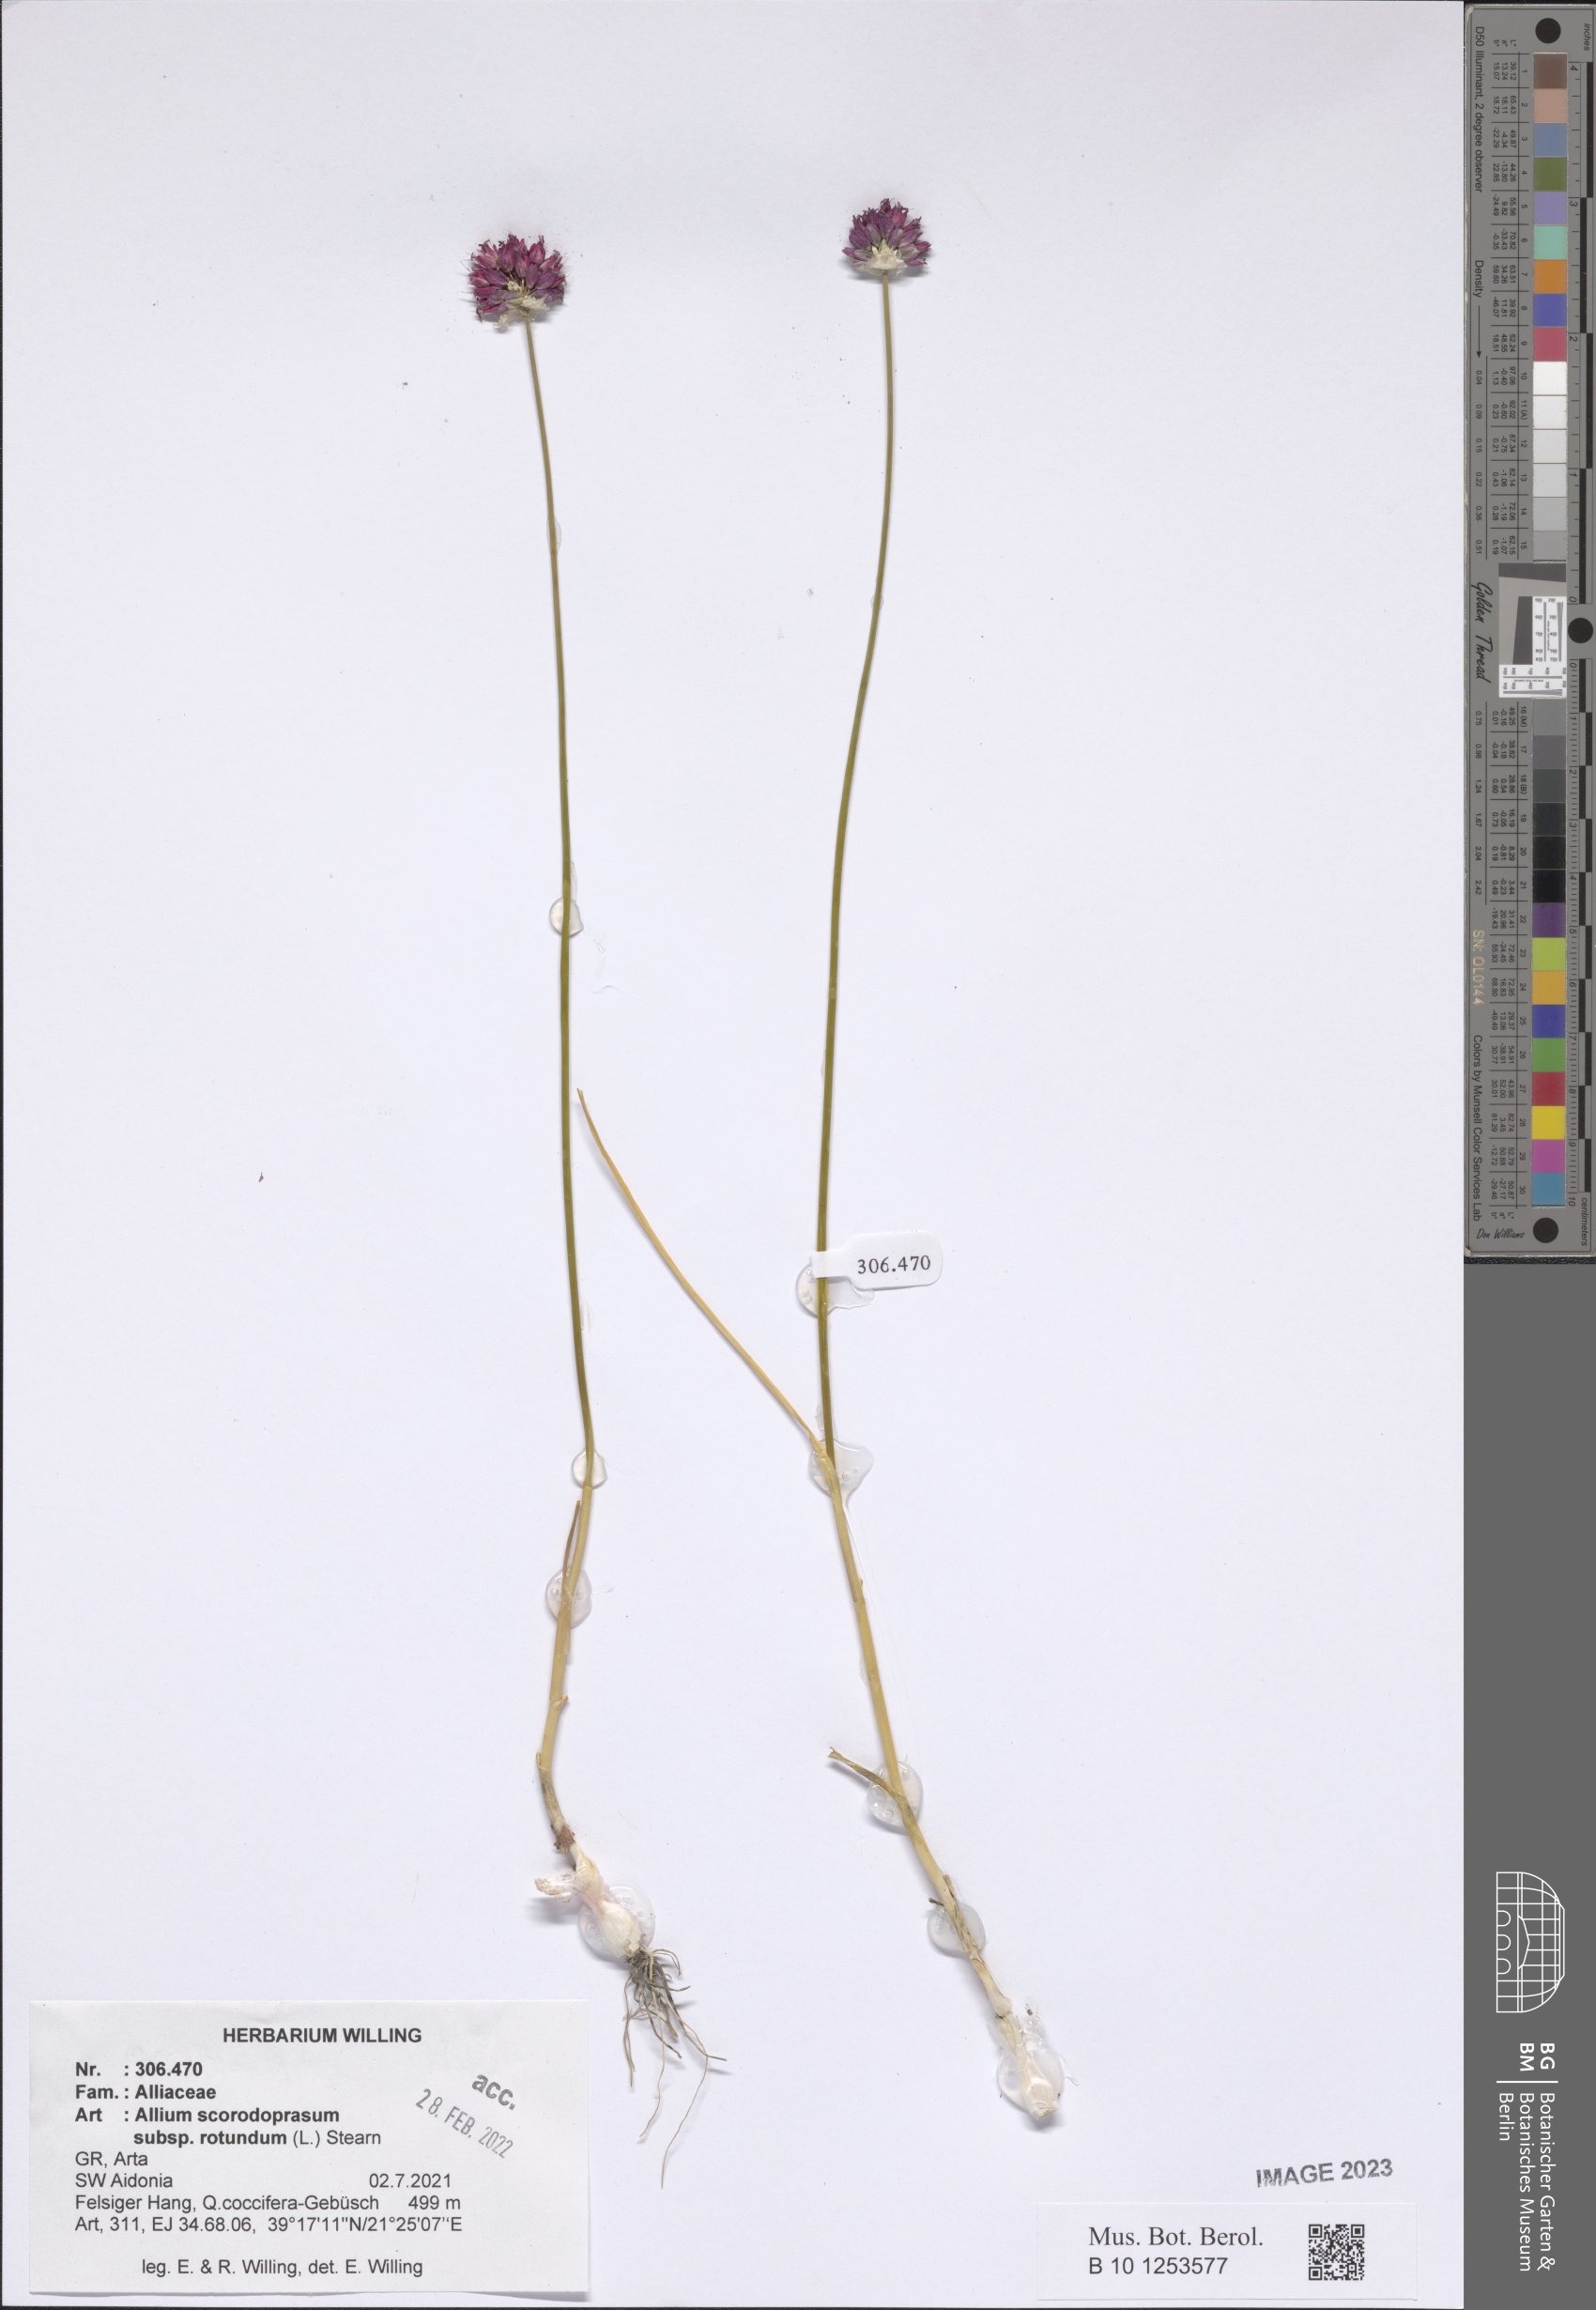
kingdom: Plantae
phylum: Tracheophyta
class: Liliopsida
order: Asparagales
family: Amaryllidaceae
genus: Allium
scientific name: Allium rotundum
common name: Sand leek
